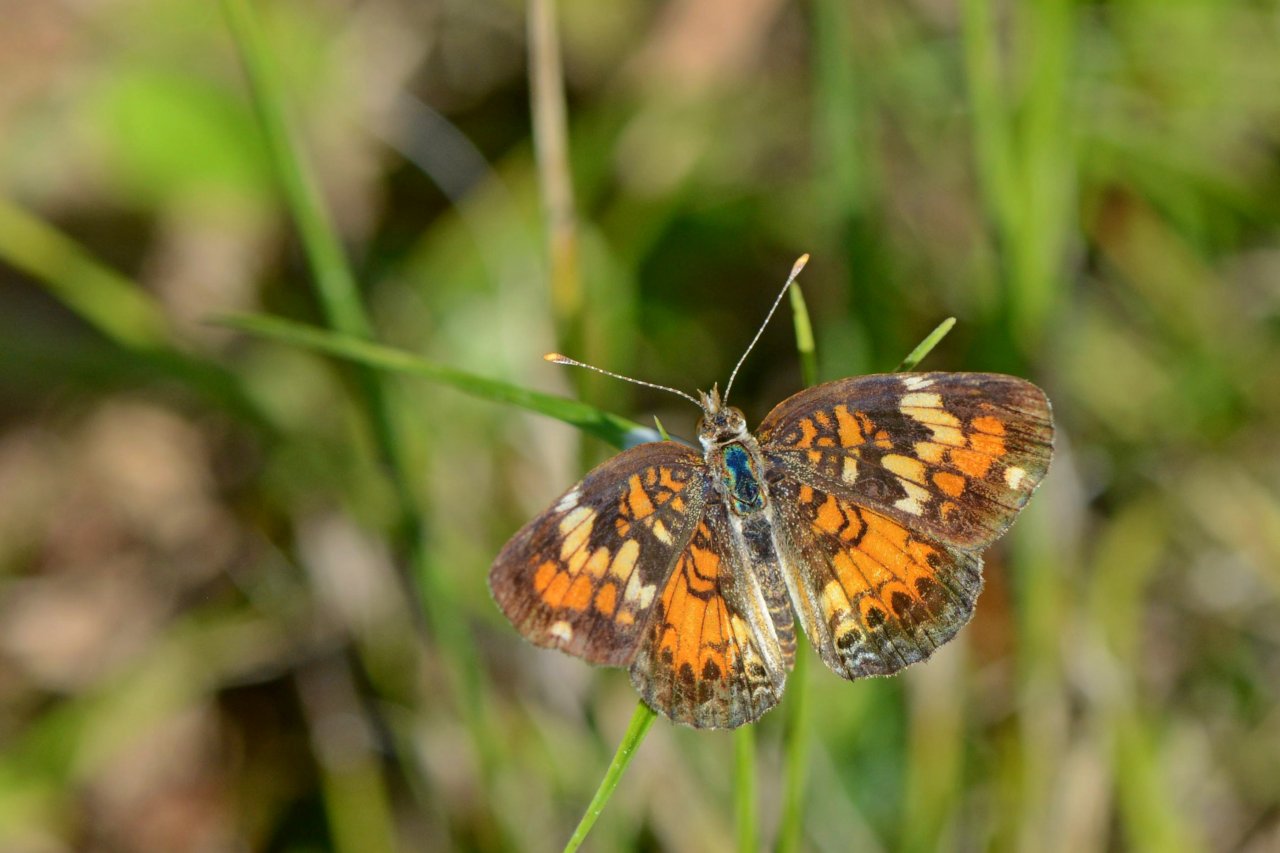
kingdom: Animalia
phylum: Arthropoda
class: Insecta
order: Lepidoptera
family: Nymphalidae
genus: Phyciodes
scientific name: Phyciodes phaon
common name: Phaon Crescent
